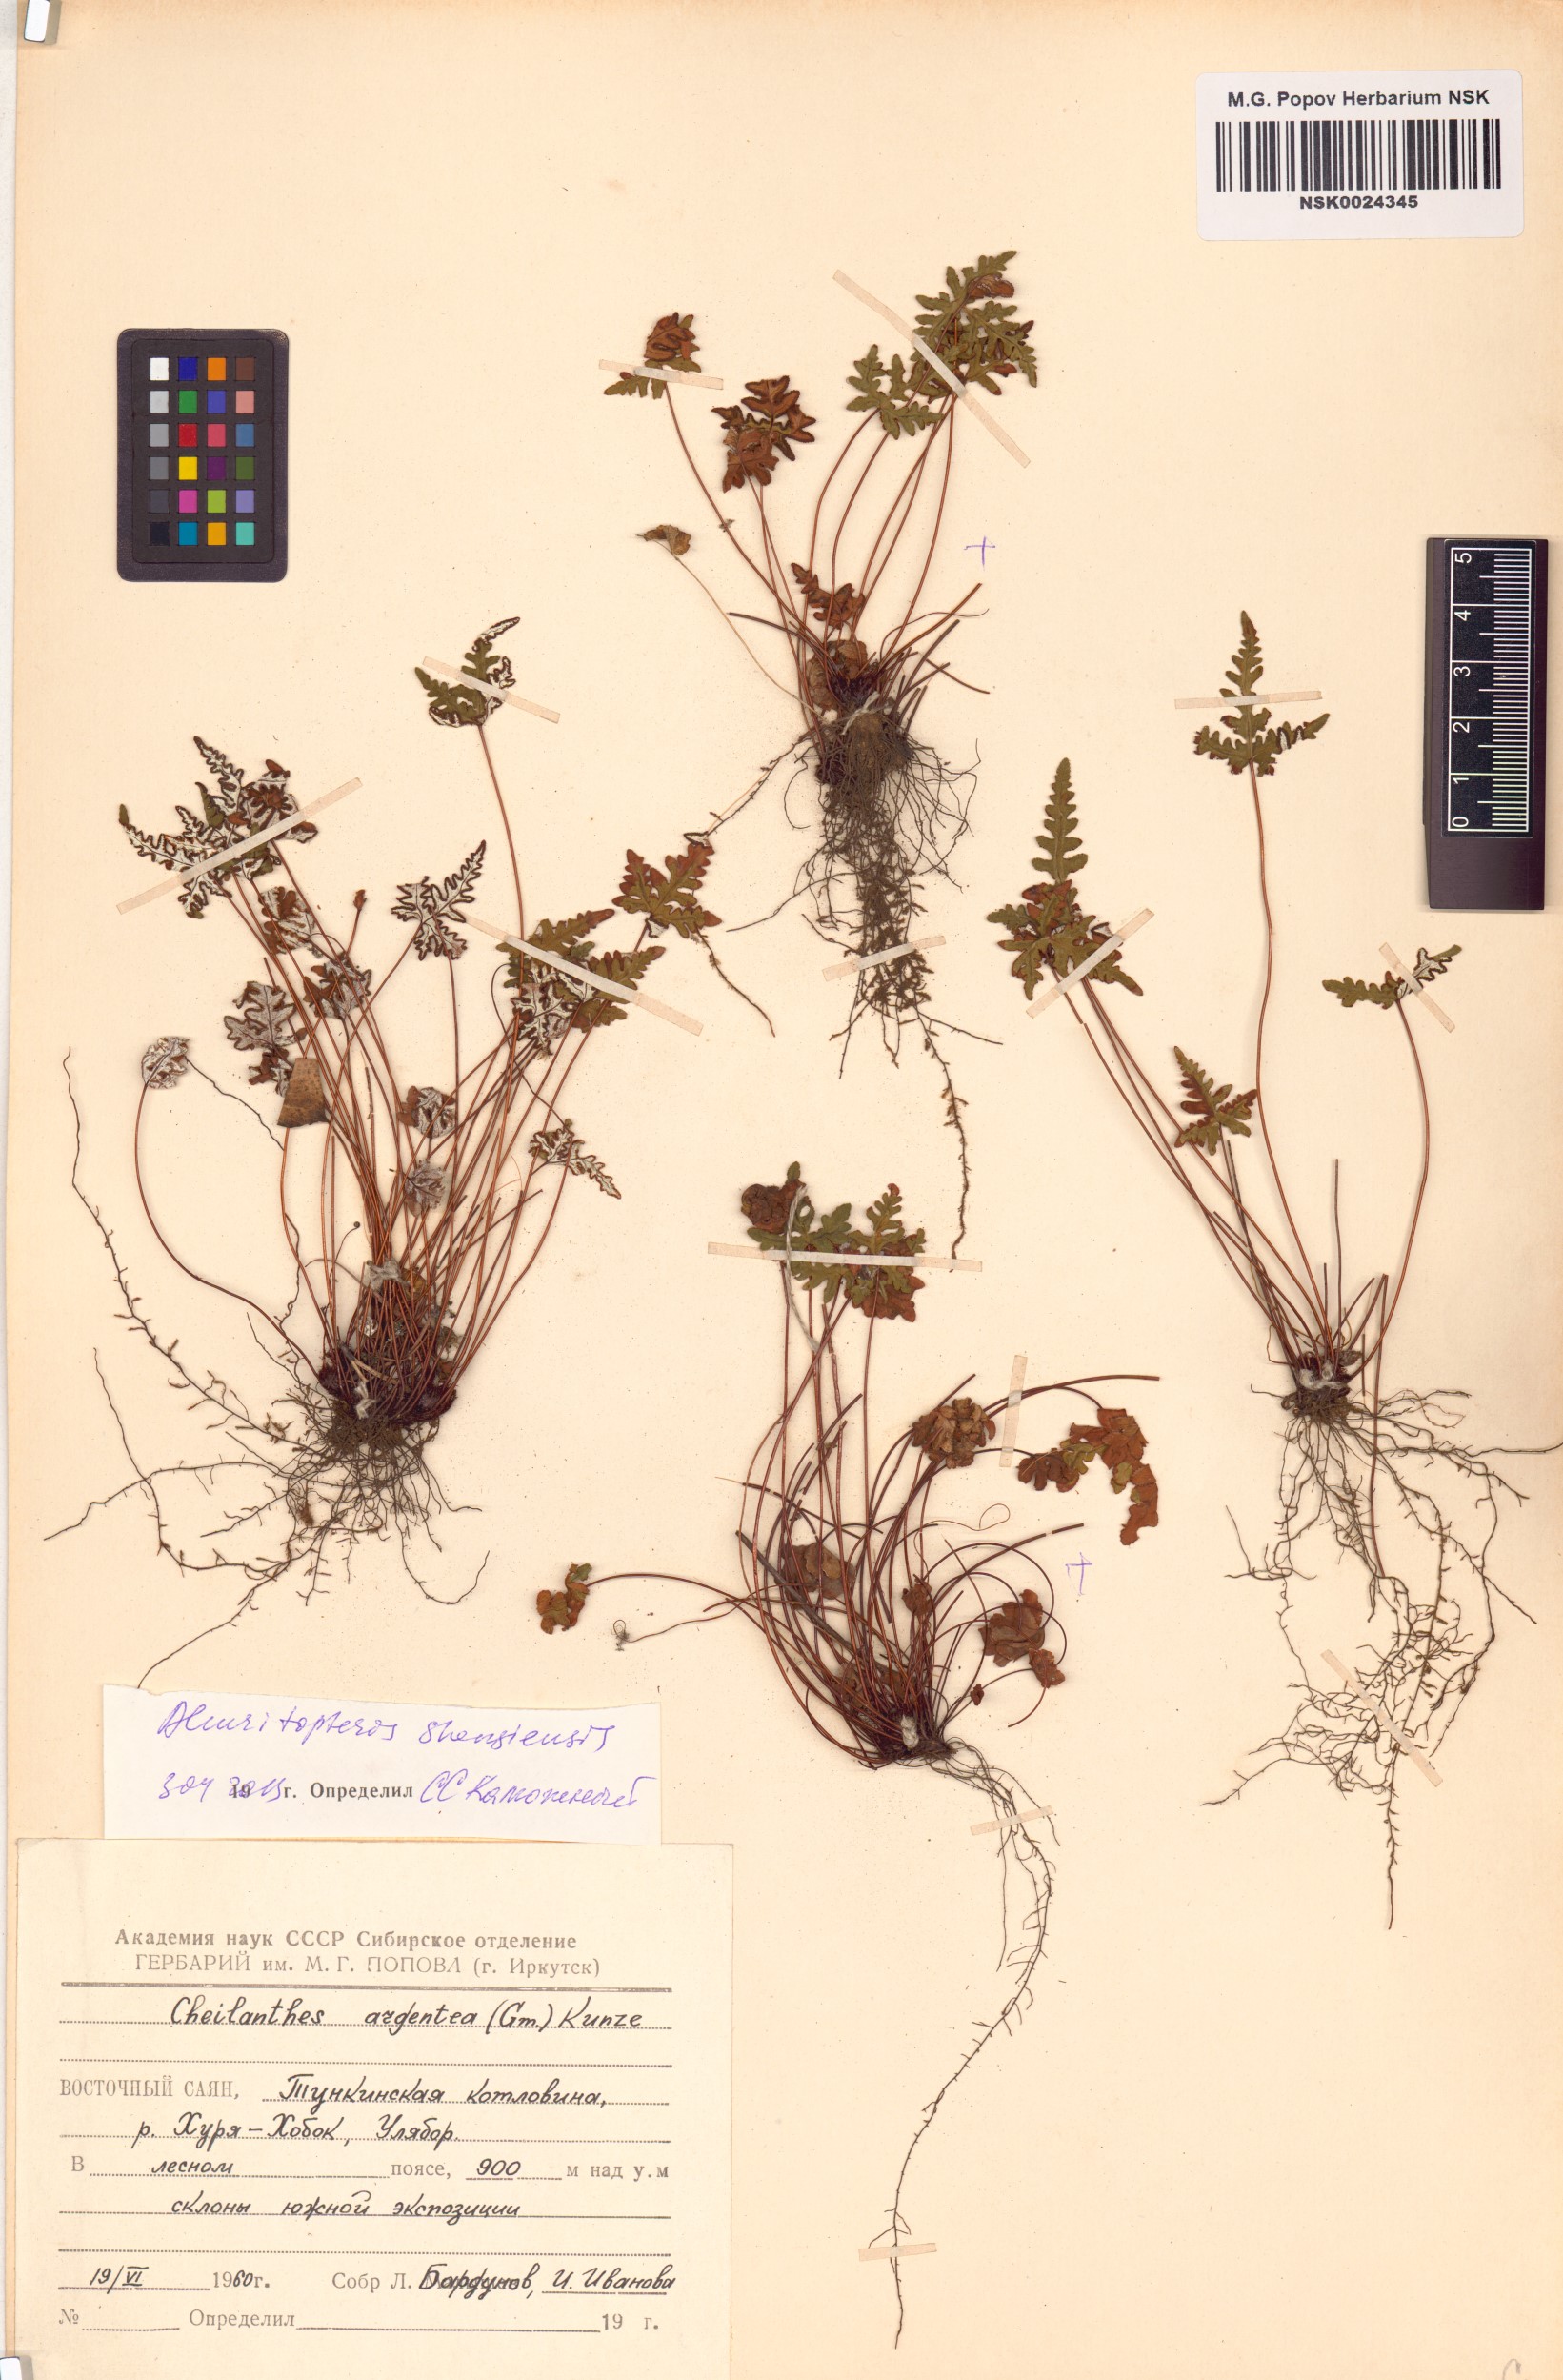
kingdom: Plantae
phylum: Tracheophyta
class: Polypodiopsida
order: Polypodiales
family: Pteridaceae
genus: Aleuritopteris
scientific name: Aleuritopteris argentea
